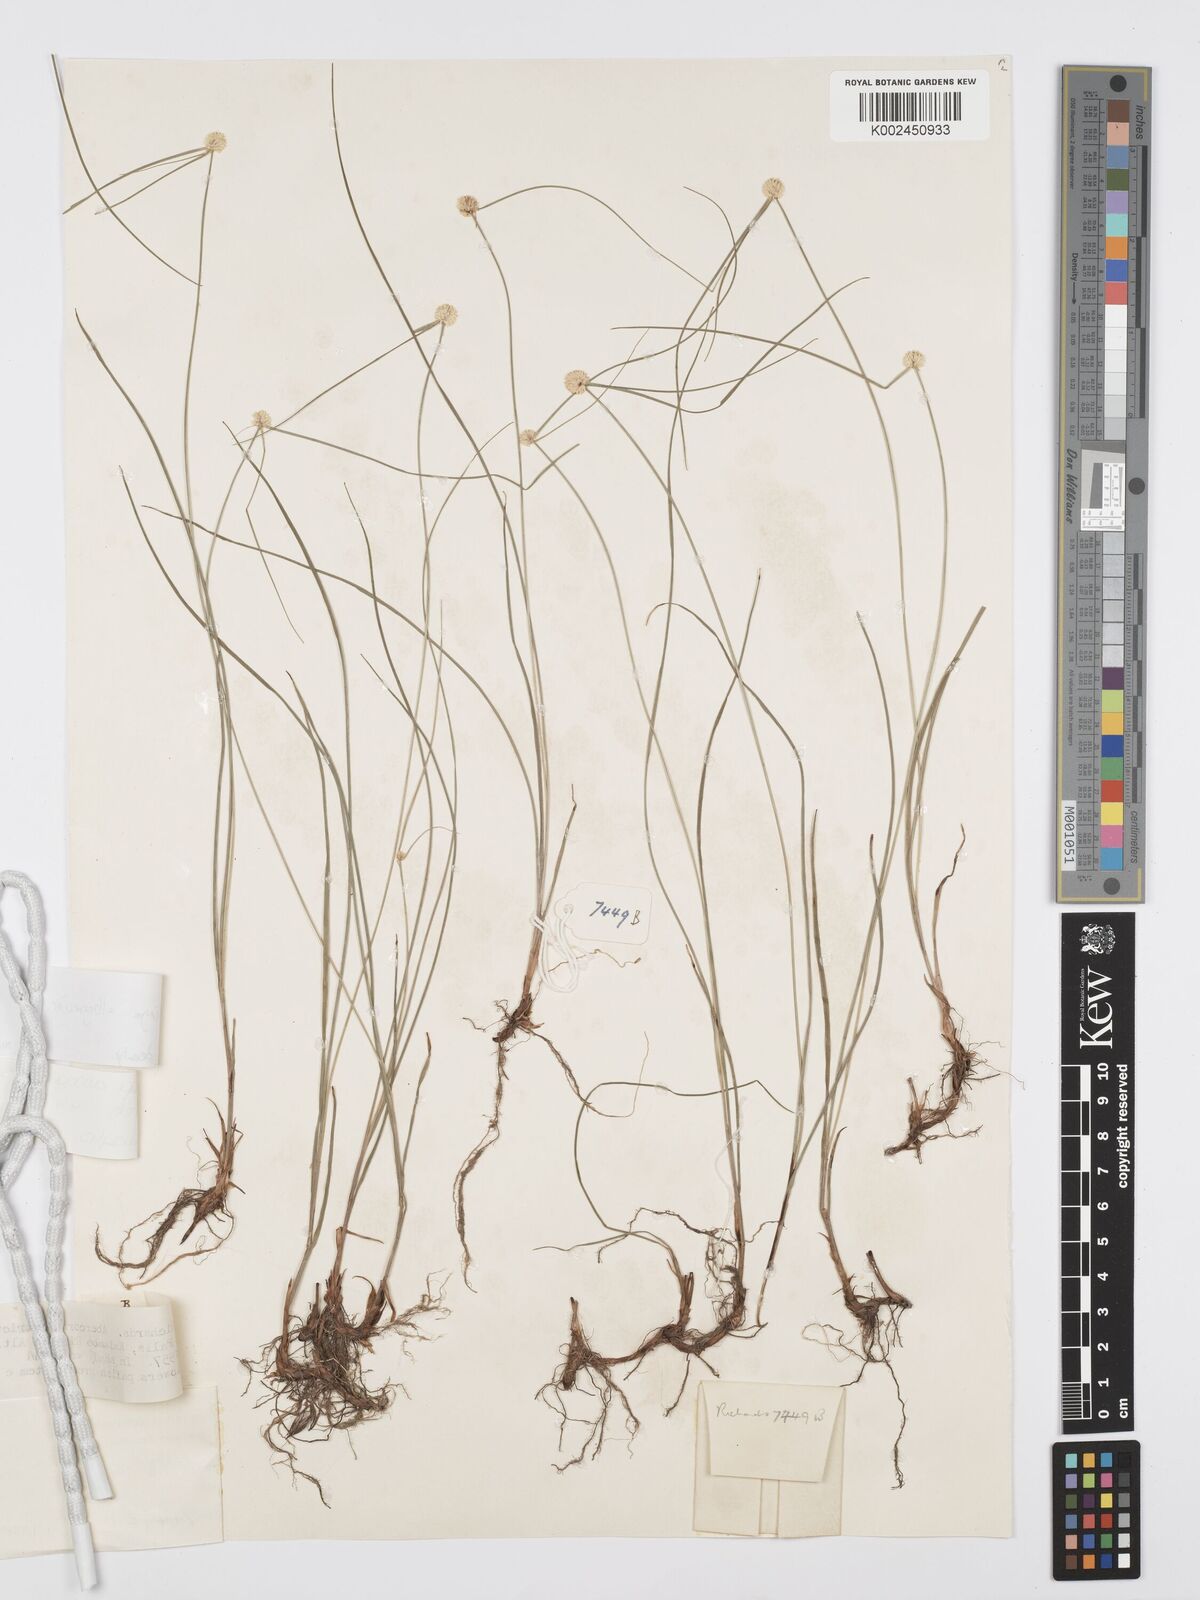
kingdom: Plantae
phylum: Tracheophyta
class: Liliopsida
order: Poales
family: Cyperaceae
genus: Cyperus
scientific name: Cyperus albogracilis
